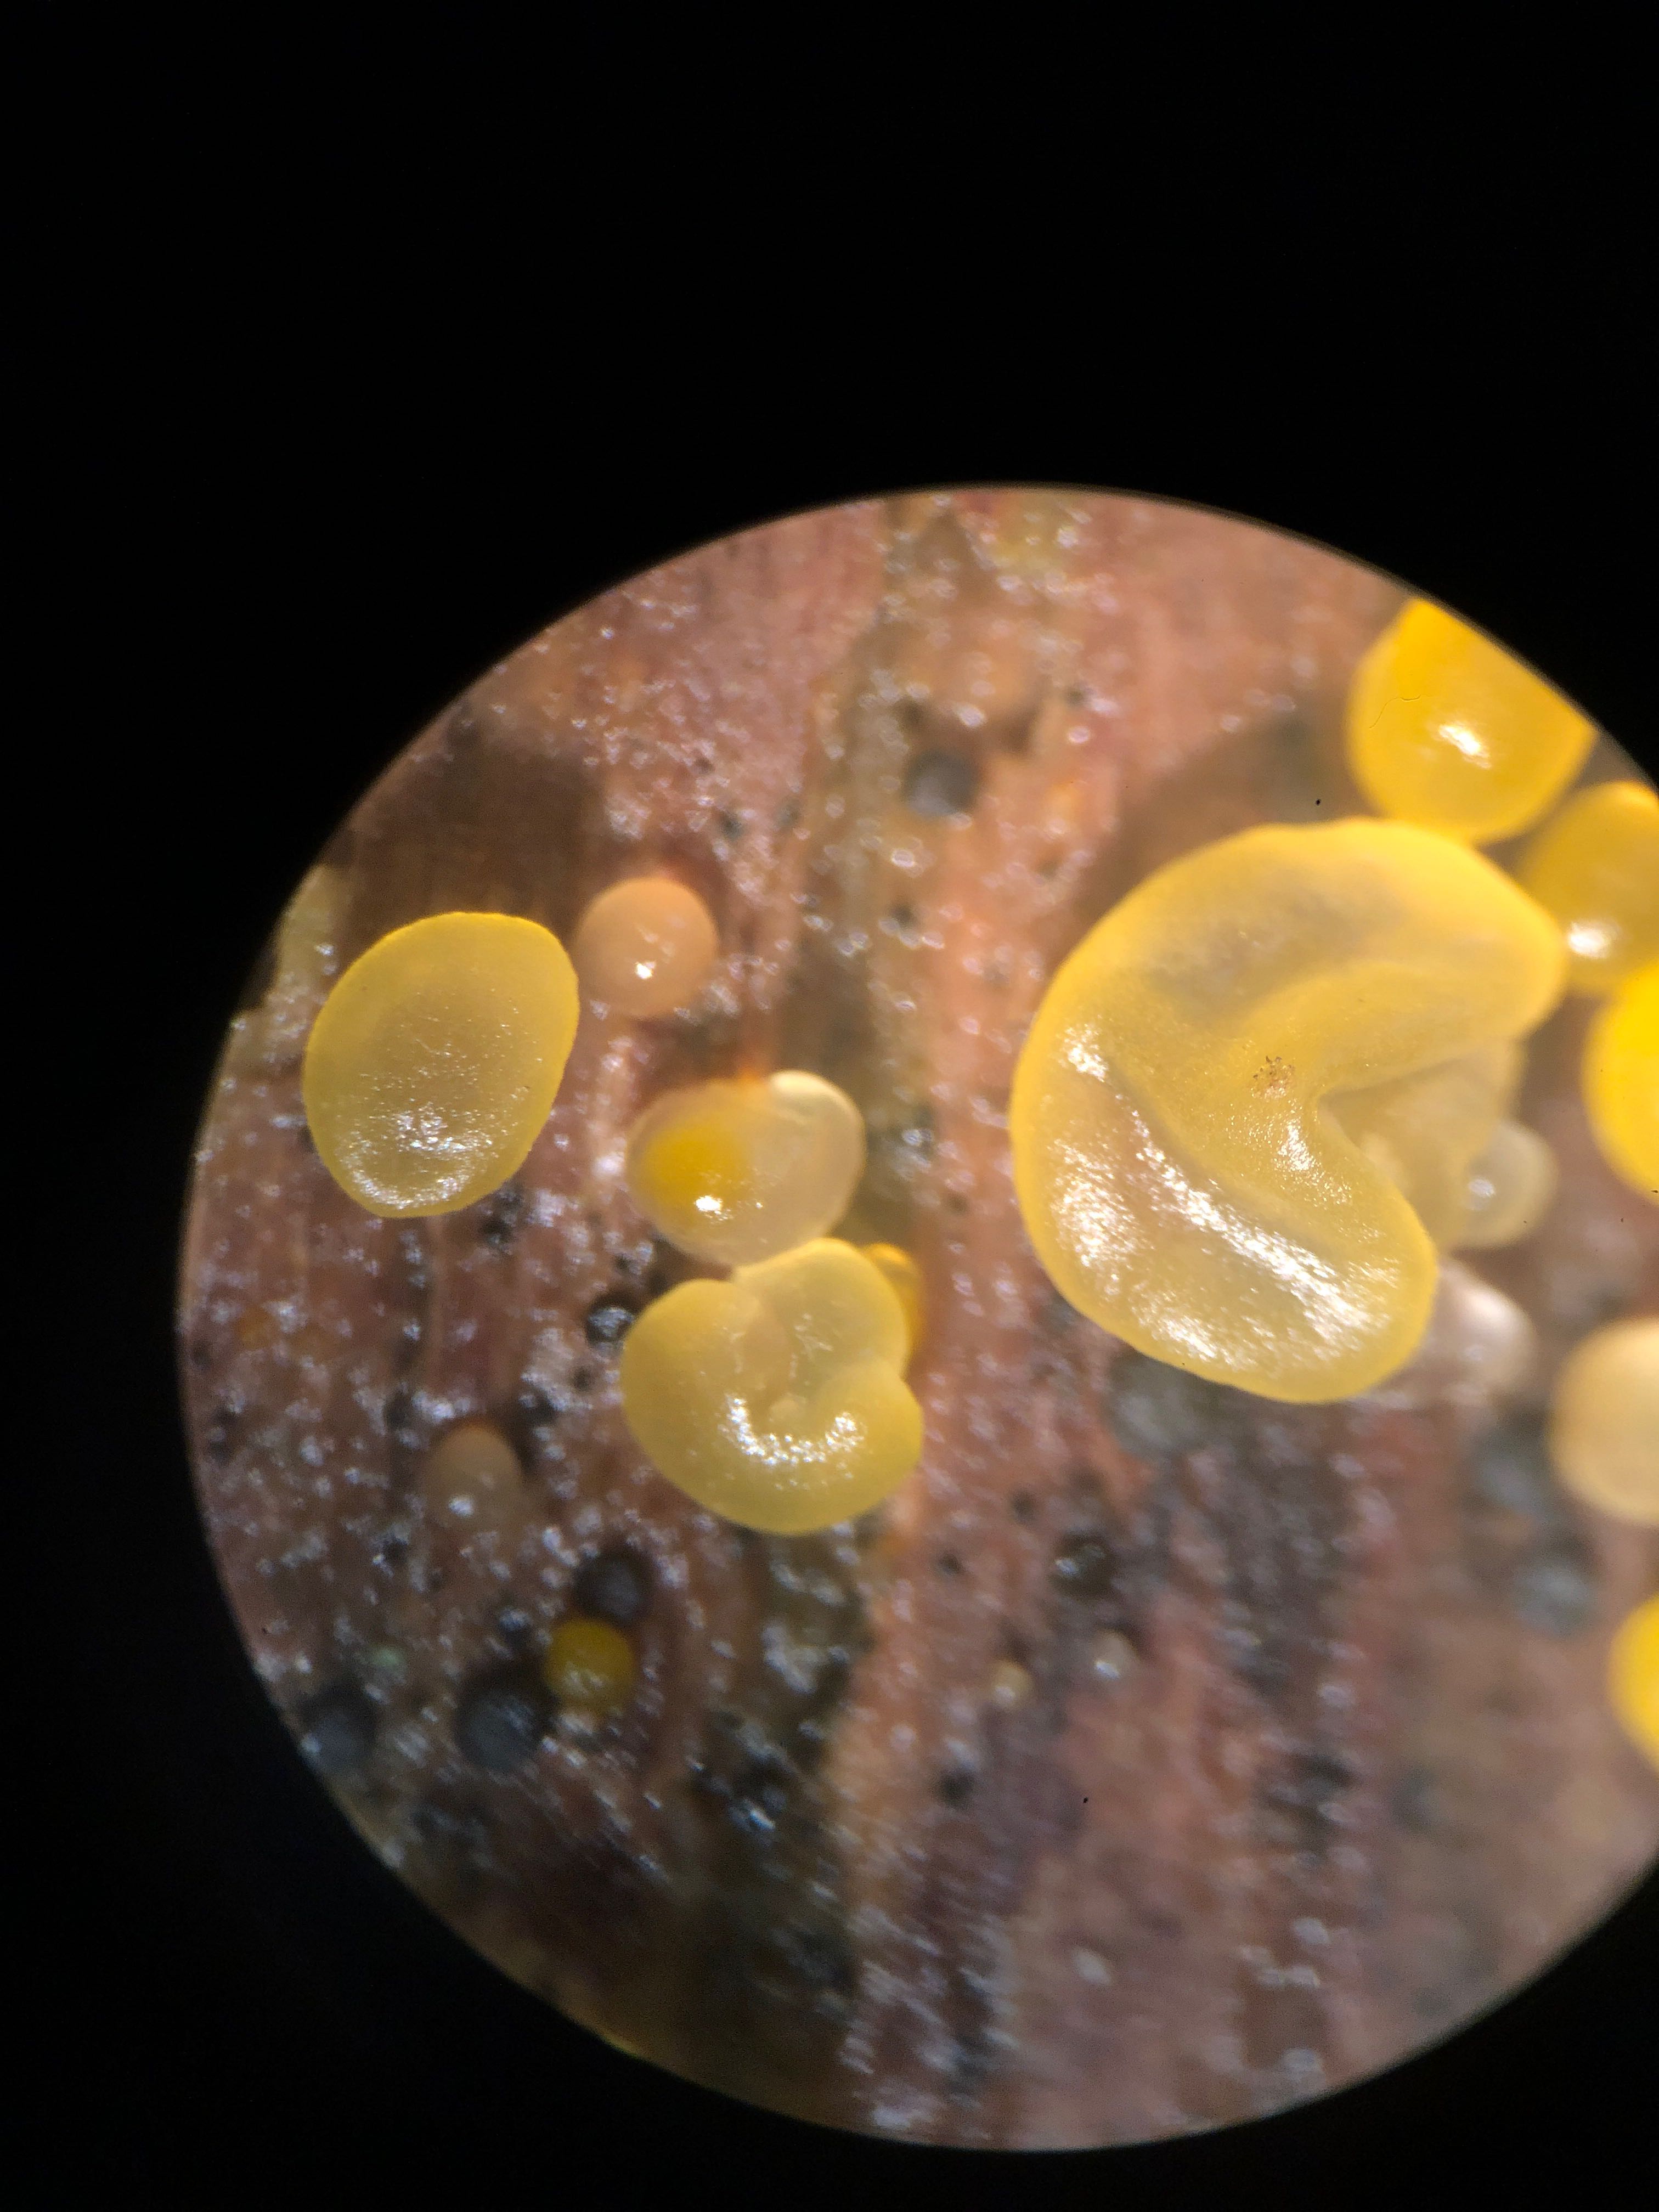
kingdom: Fungi
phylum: Basidiomycota
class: Dacrymycetes
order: Dacrymycetales
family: Dacrymycetaceae
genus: Dacrymyces
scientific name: Dacrymyces
